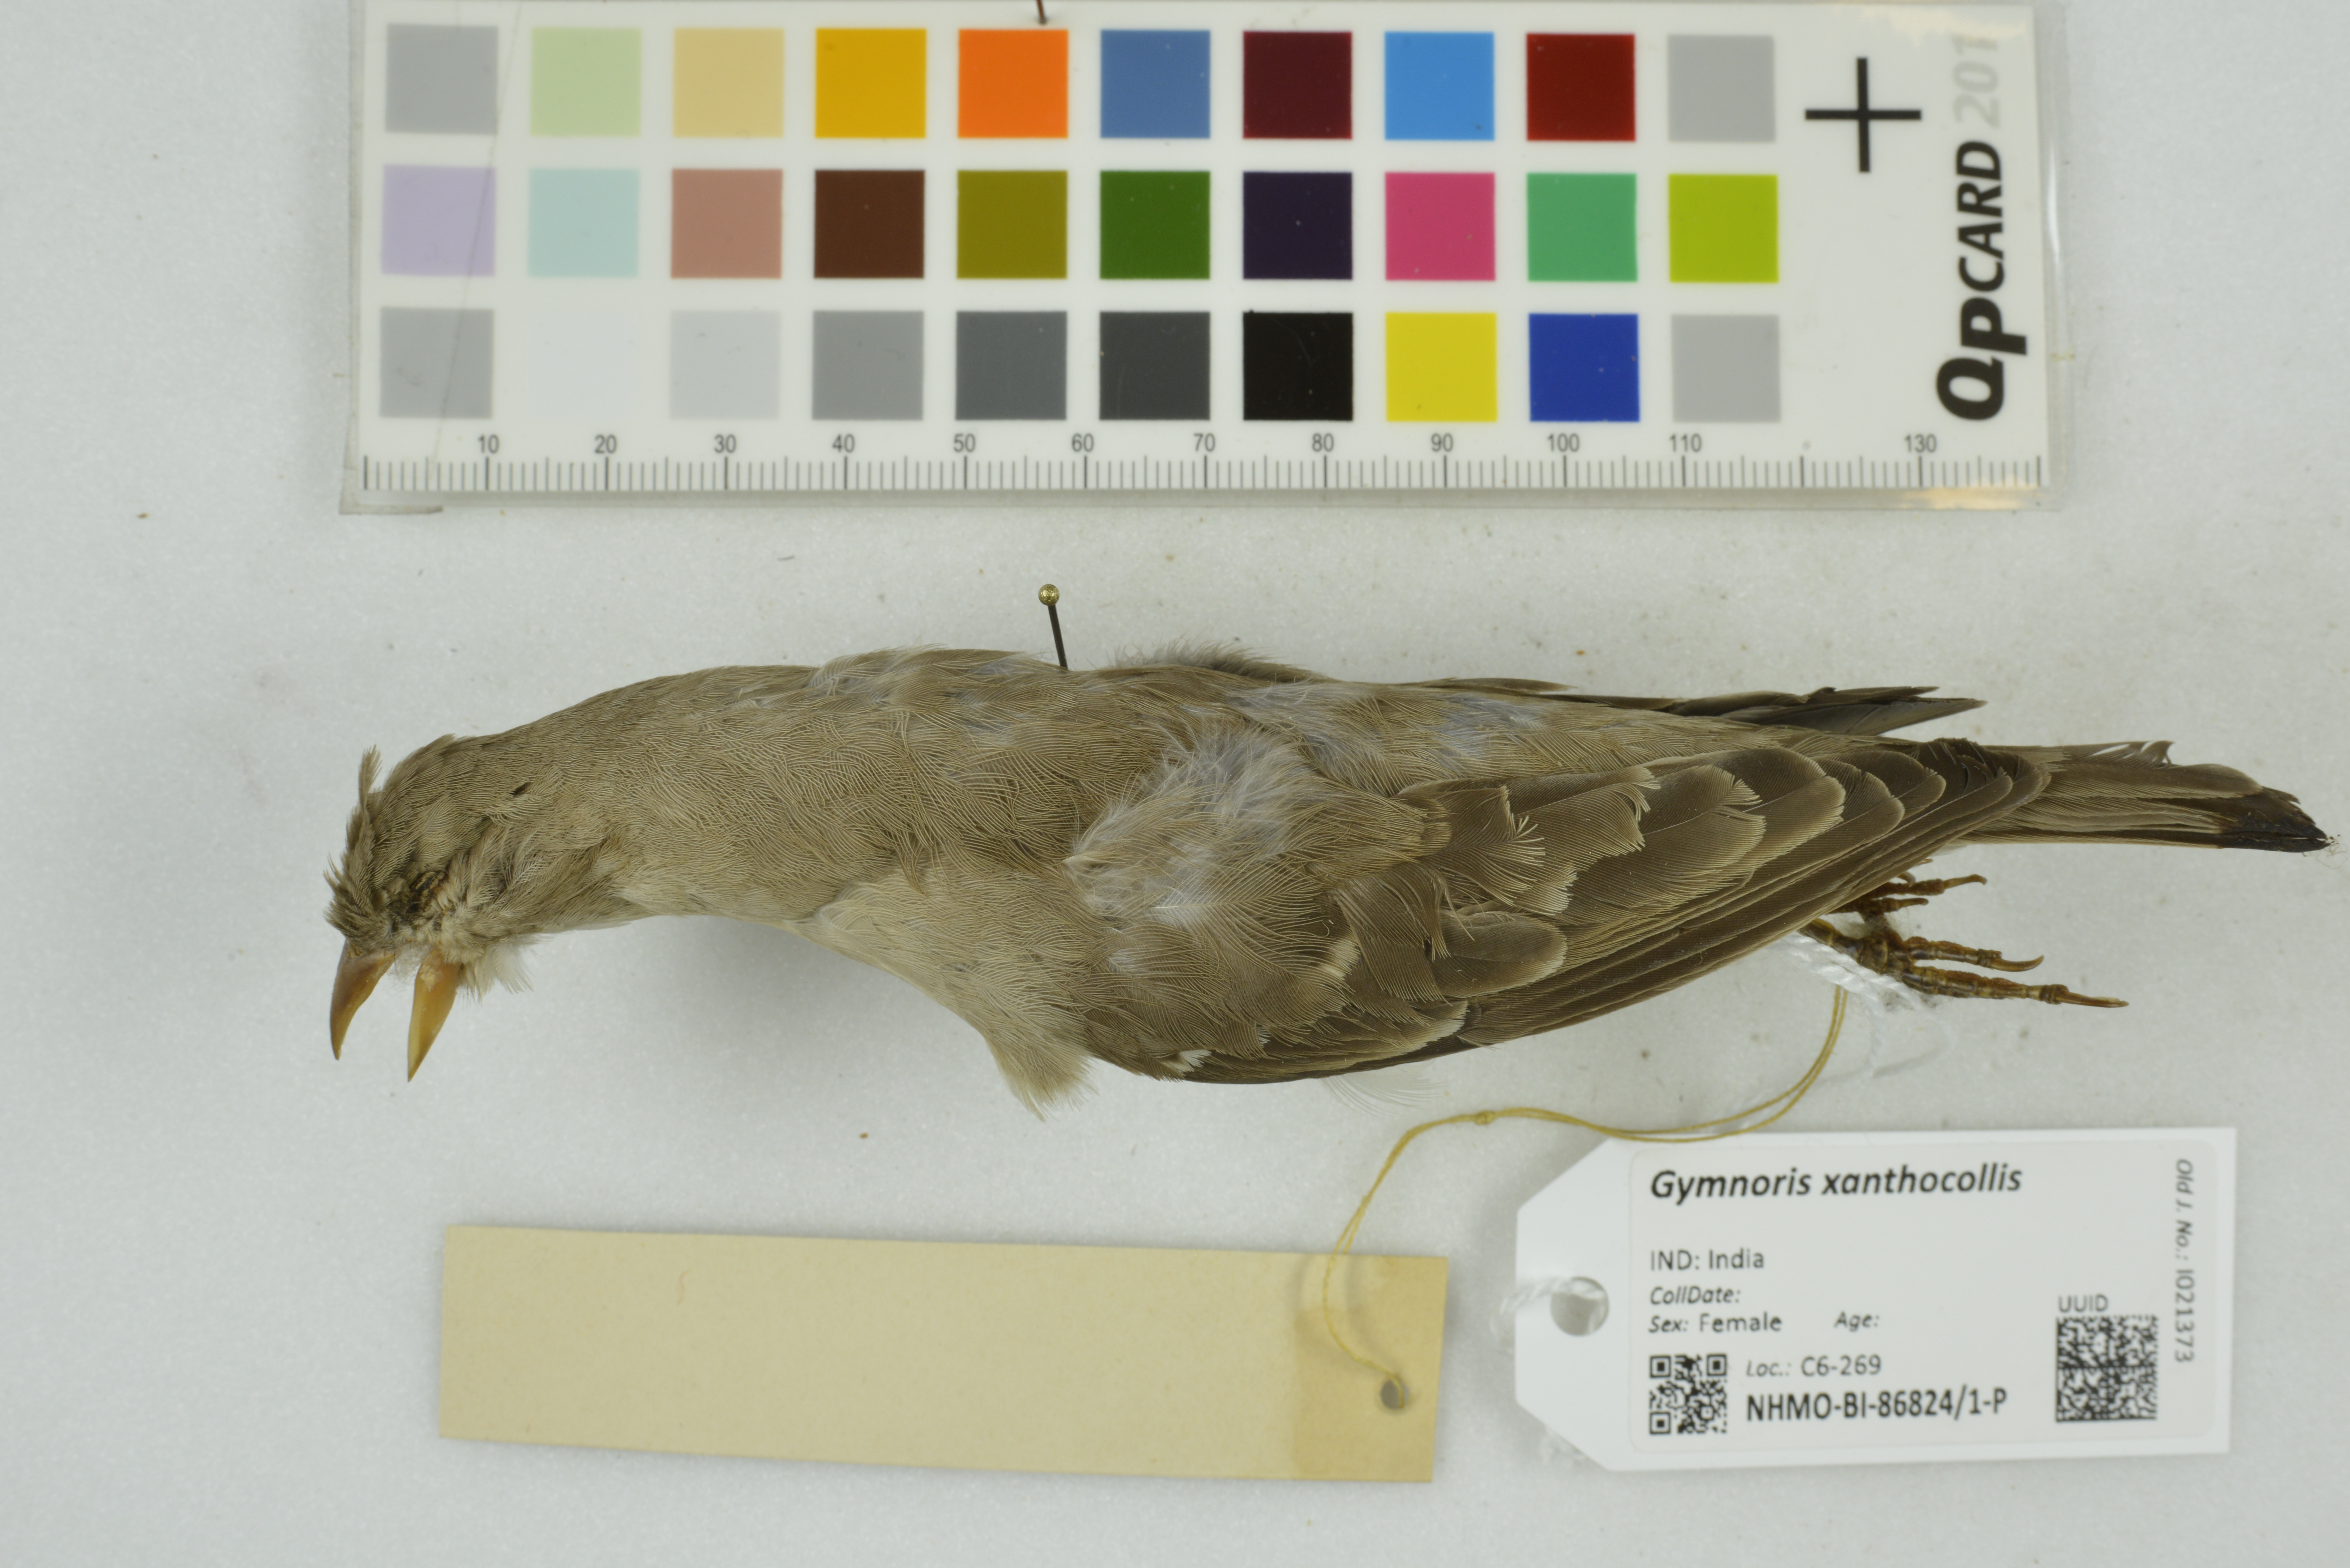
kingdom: Animalia
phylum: Chordata
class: Aves
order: Passeriformes
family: Passeridae
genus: Gymnoris
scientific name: Gymnoris xanthocollis
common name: Yellow-throated sparrow
